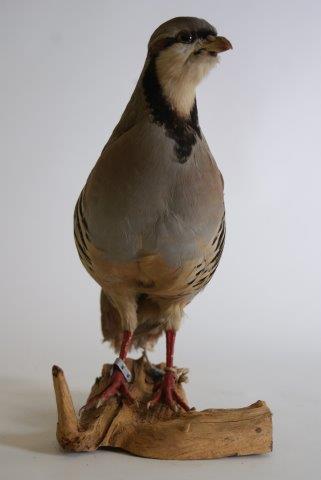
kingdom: Animalia
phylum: Chordata
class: Aves
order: Galliformes
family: Phasianidae
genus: Alectoris
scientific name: Alectoris chukar
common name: Aziatische steenpatrijs
